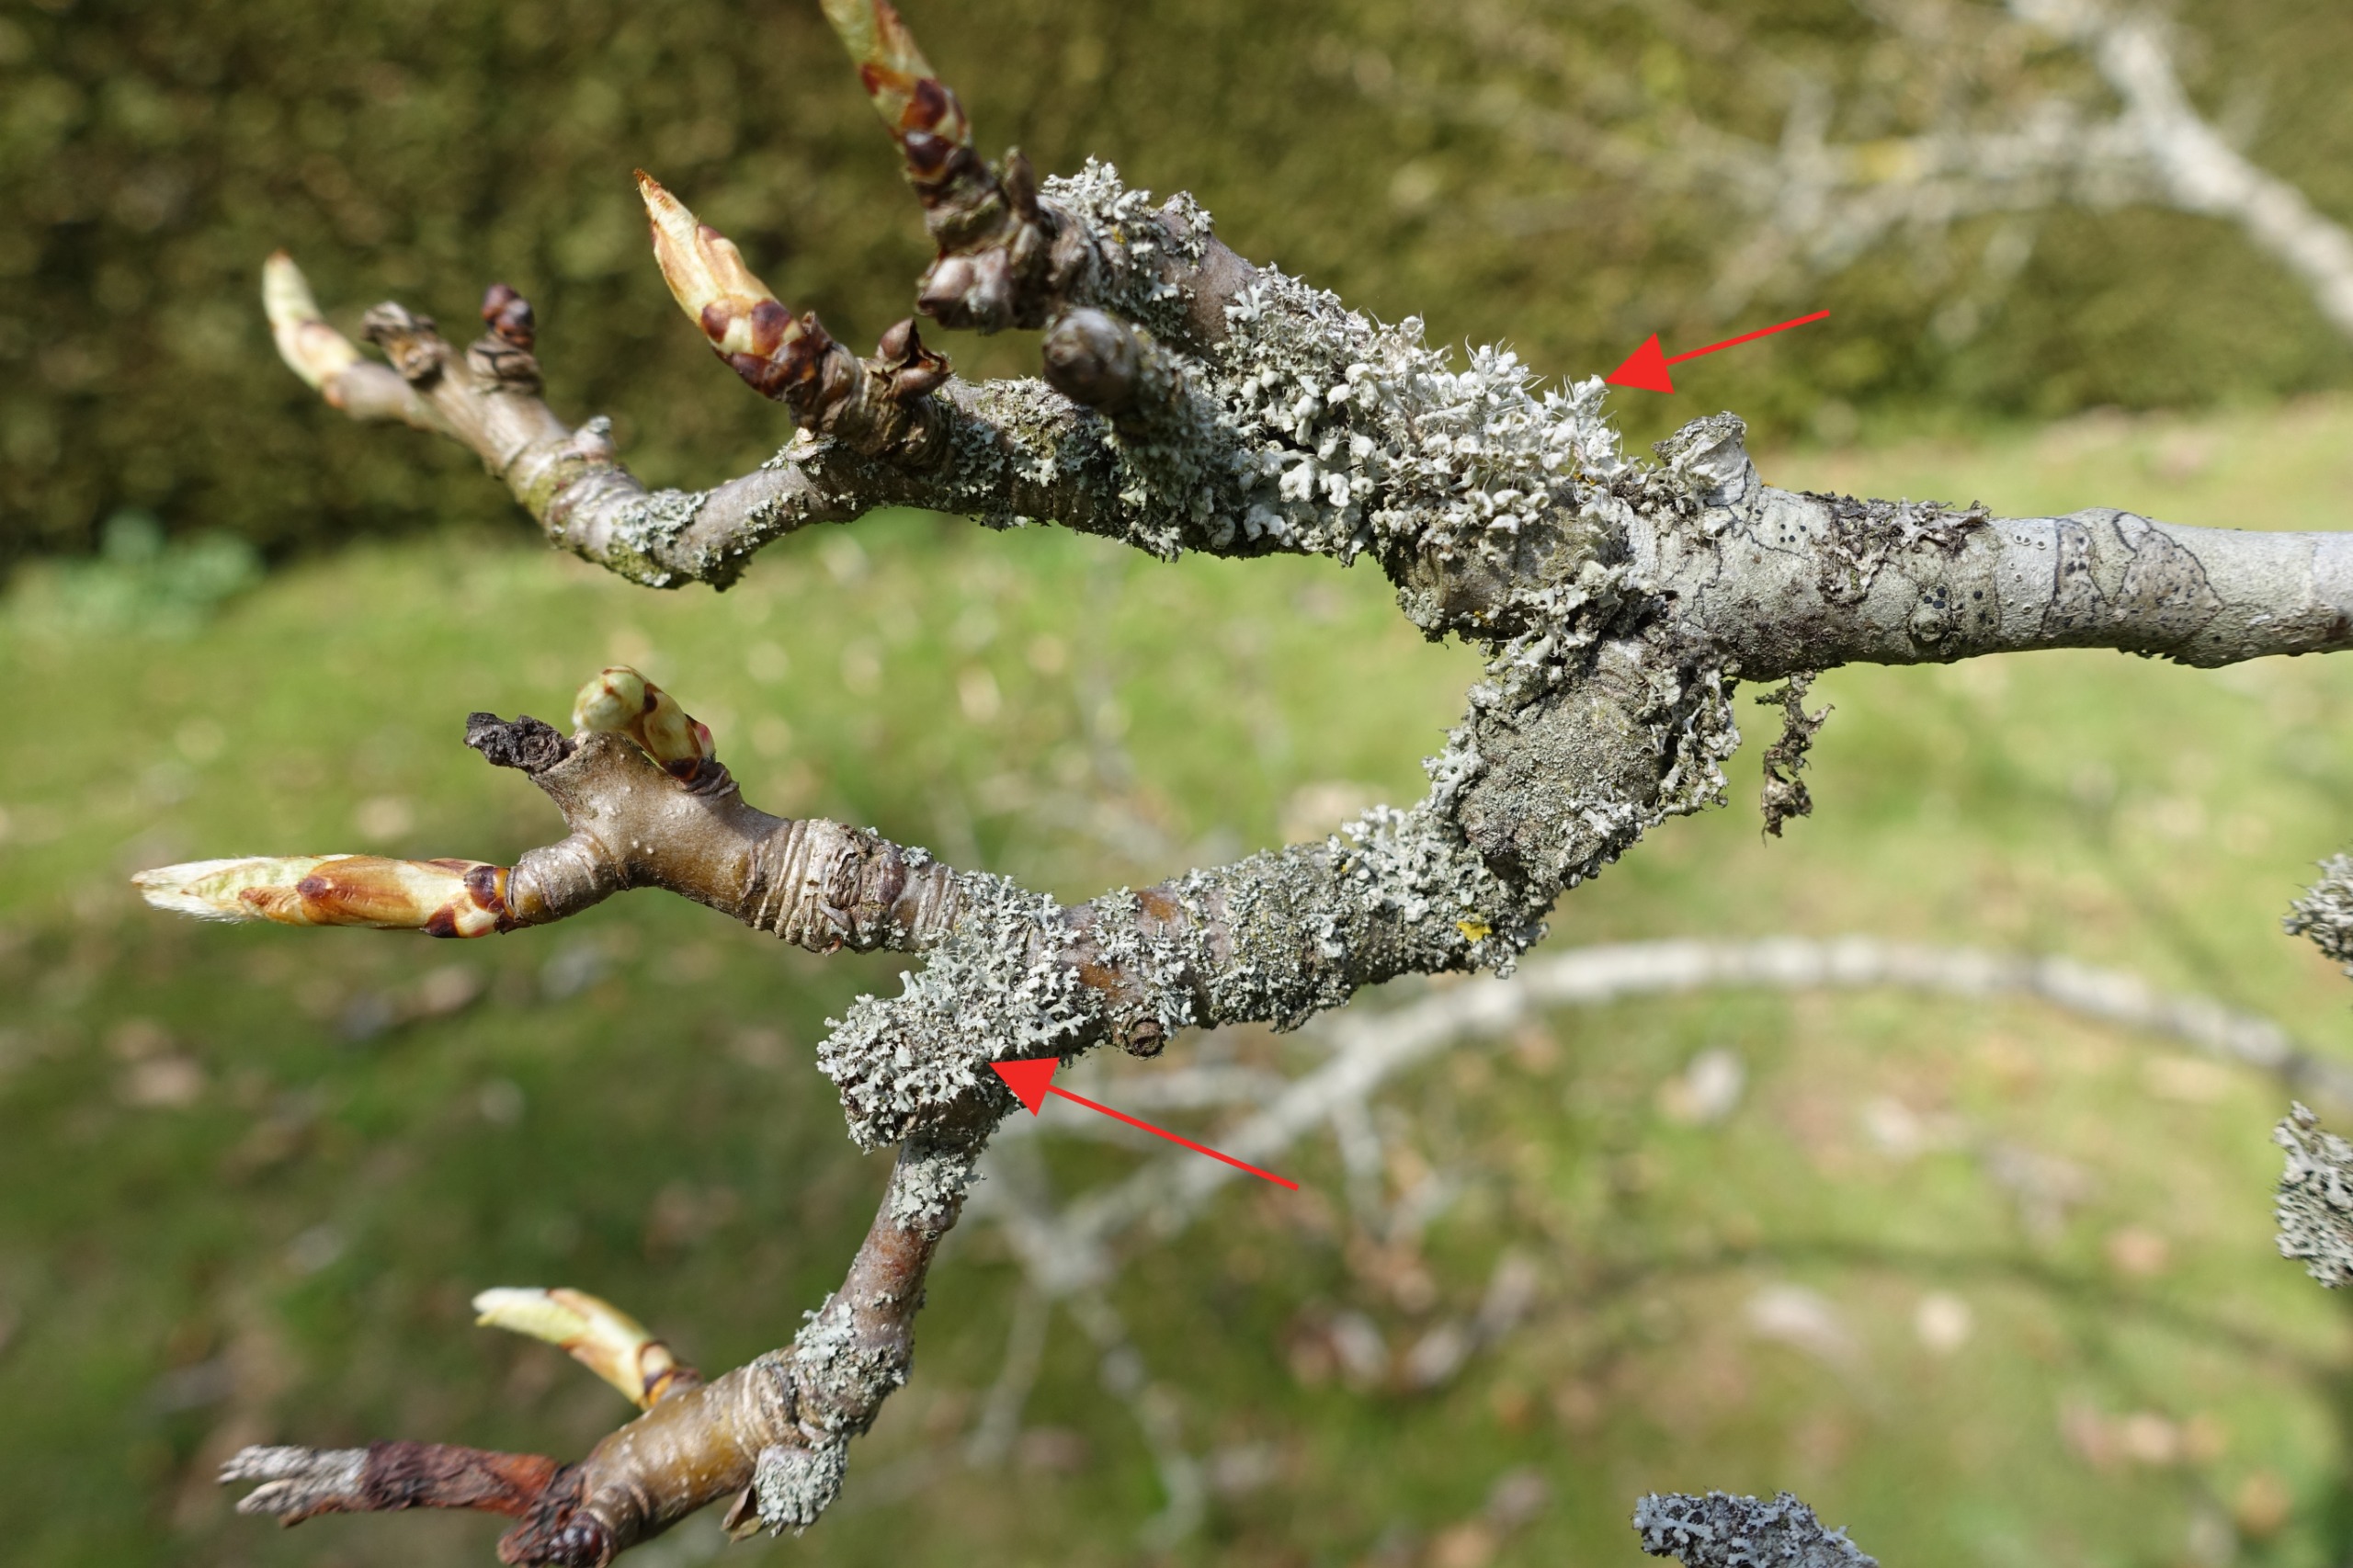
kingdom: Fungi
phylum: Ascomycota
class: Lecanoromycetes
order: Caliciales
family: Physciaceae
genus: Physcia
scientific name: Physcia adscendens
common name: Hætte-rosetlav
